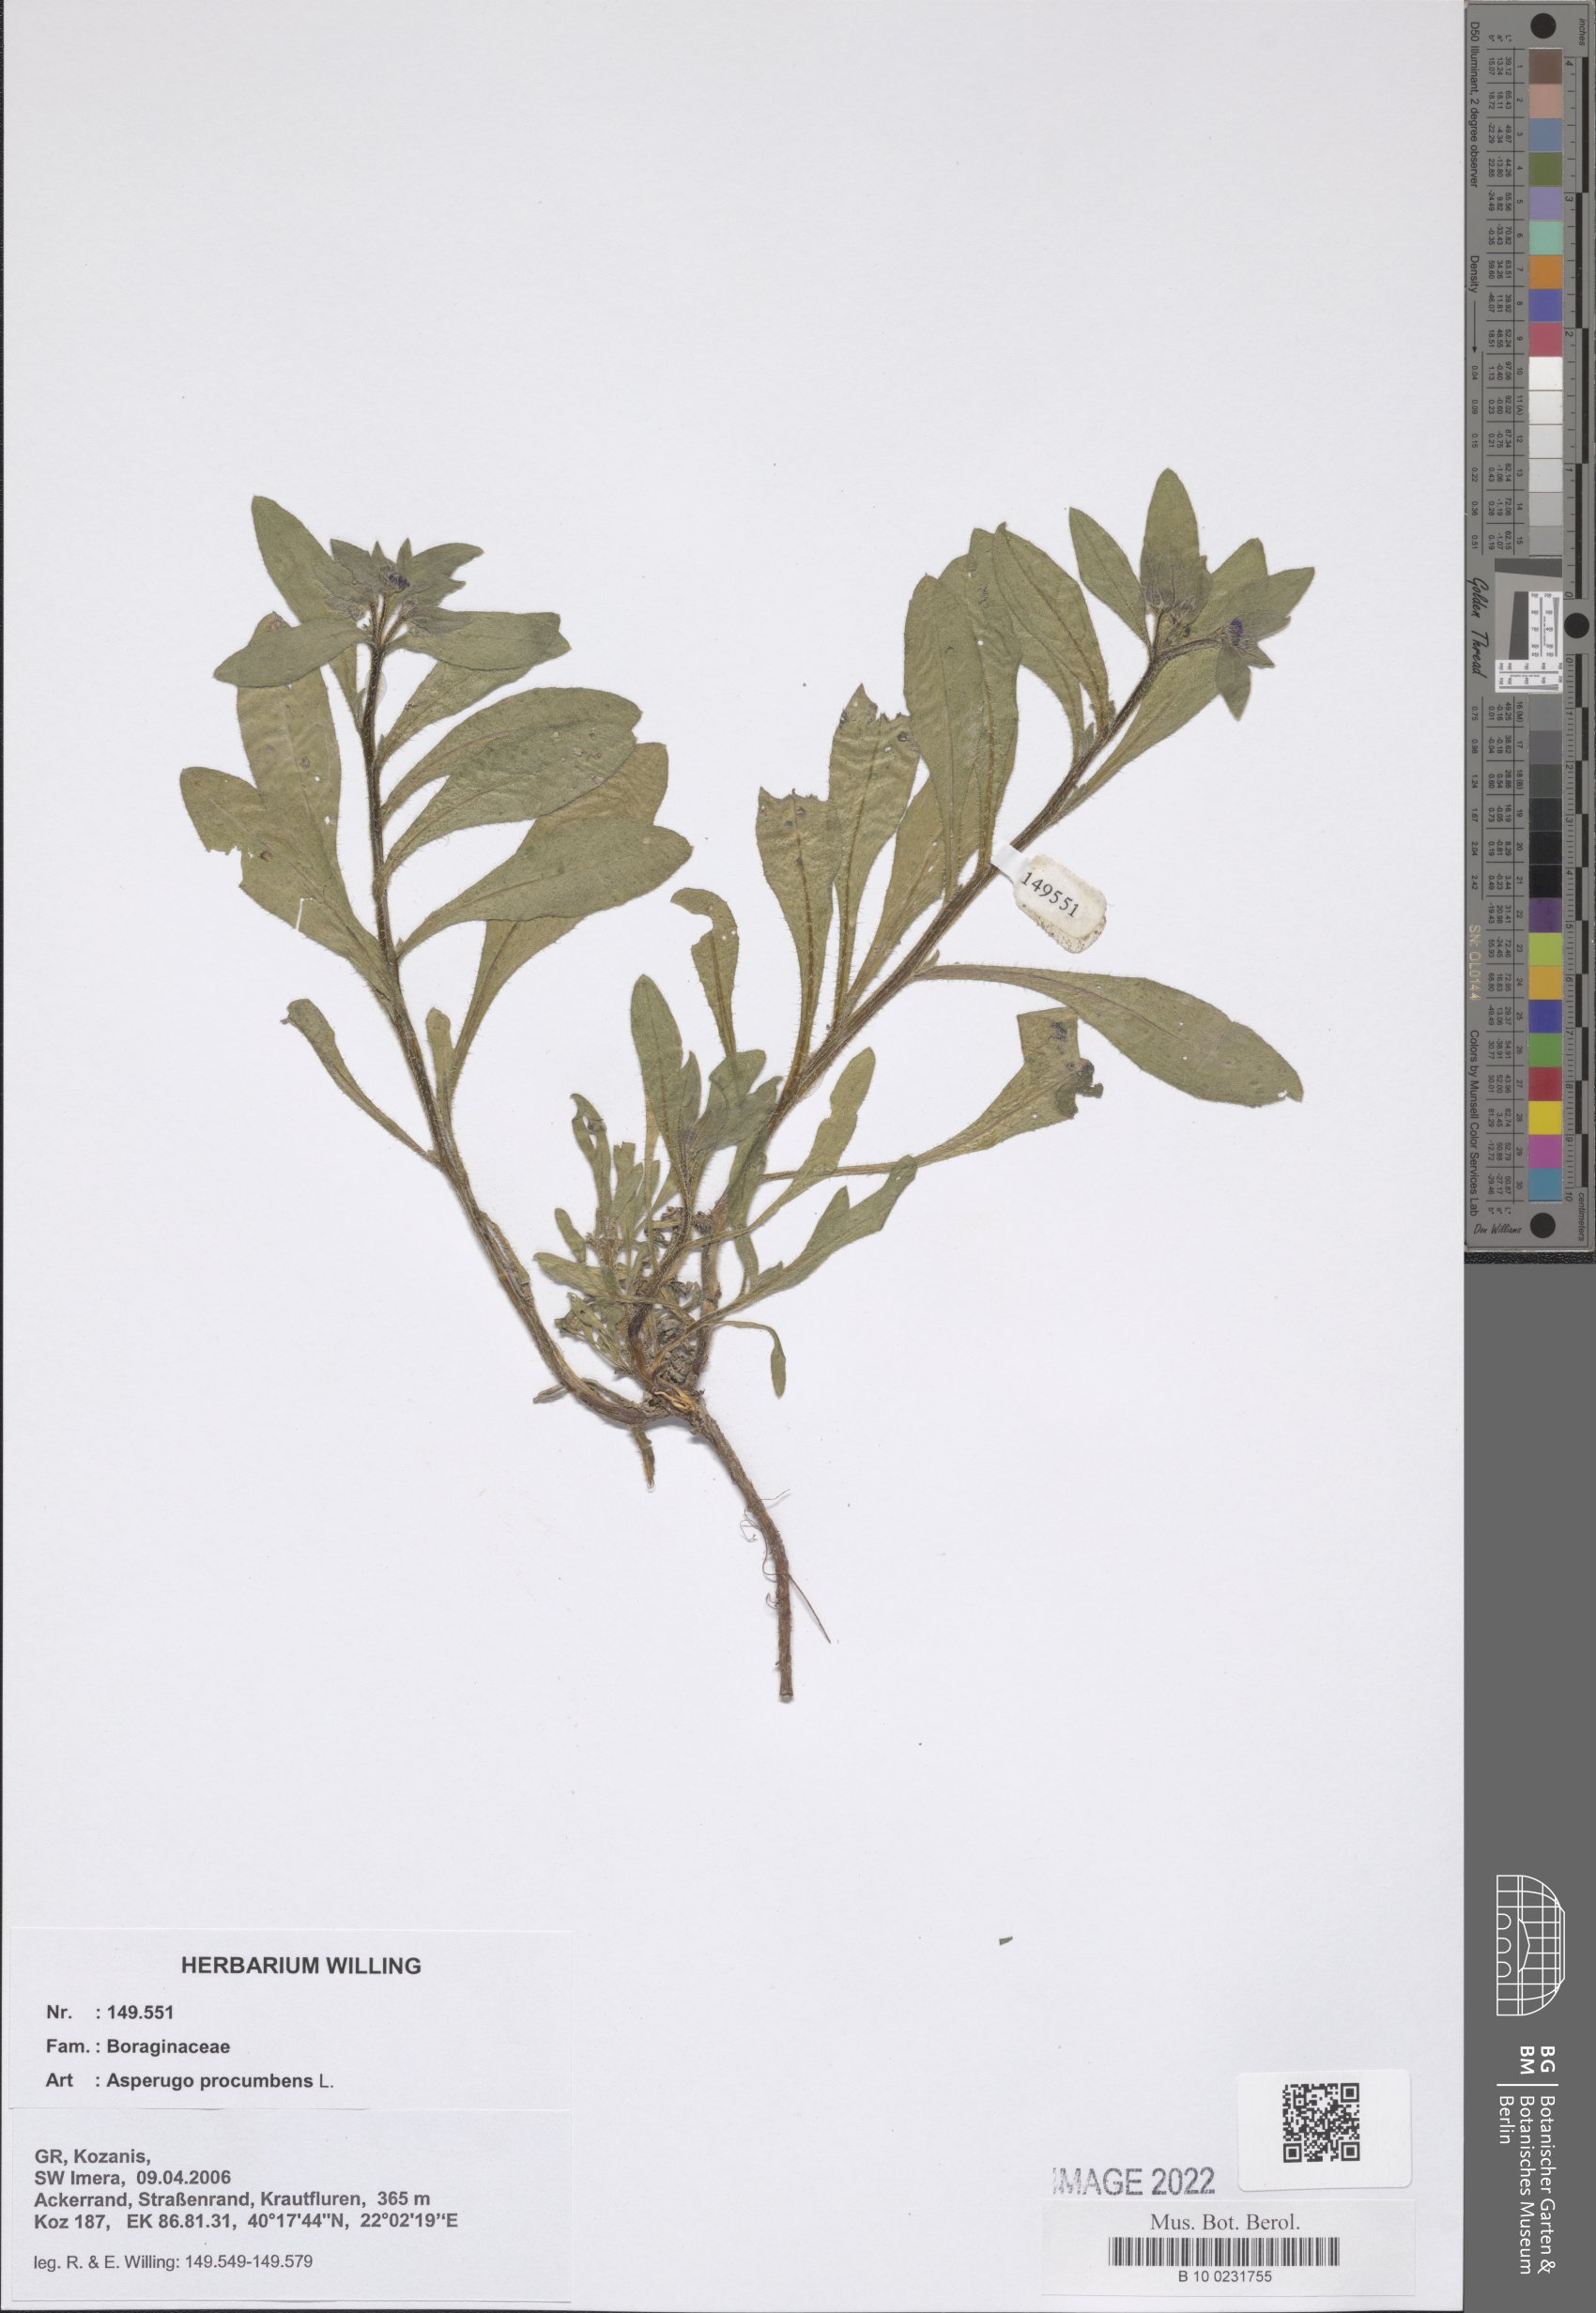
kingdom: Plantae
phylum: Tracheophyta
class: Magnoliopsida
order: Boraginales
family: Boraginaceae
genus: Asperugo
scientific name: Asperugo procumbens
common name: Madwort
